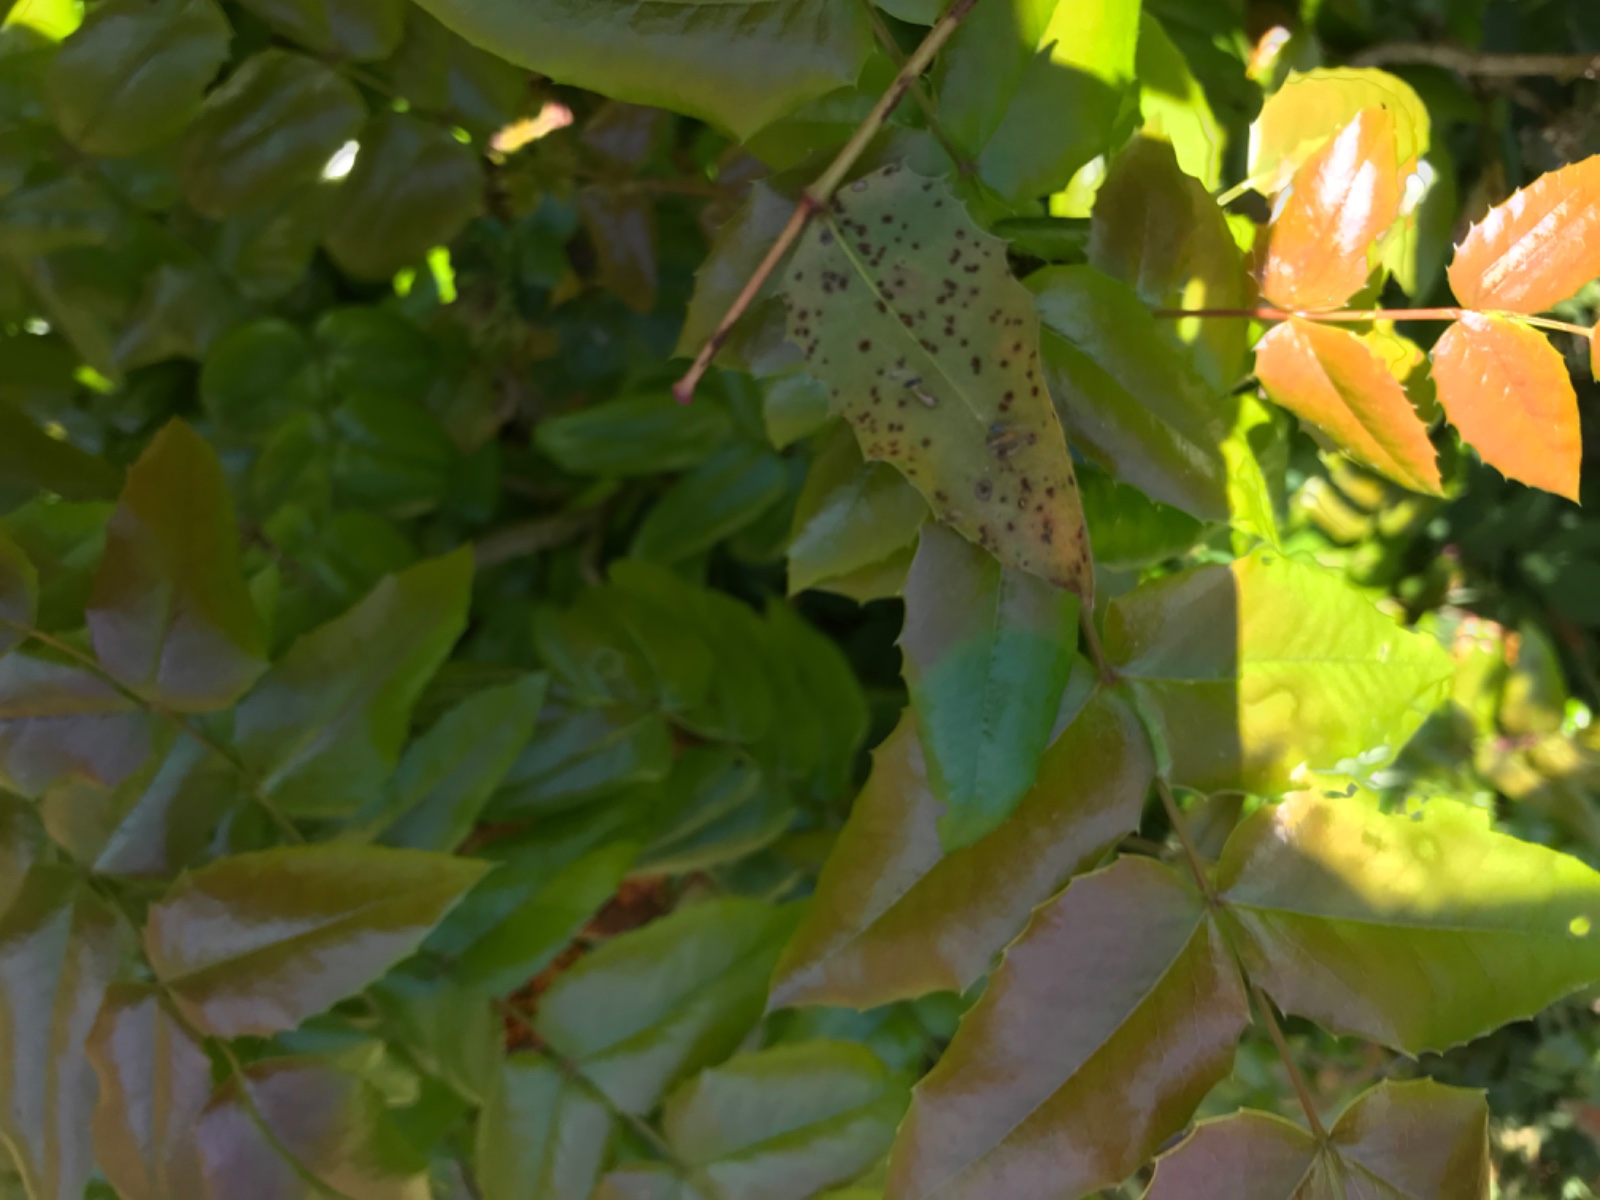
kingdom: Fungi
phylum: Basidiomycota
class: Pucciniomycetes
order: Pucciniales
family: Pucciniaceae
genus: Cumminsiella
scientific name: Cumminsiella mirabilissima
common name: mahonierust
